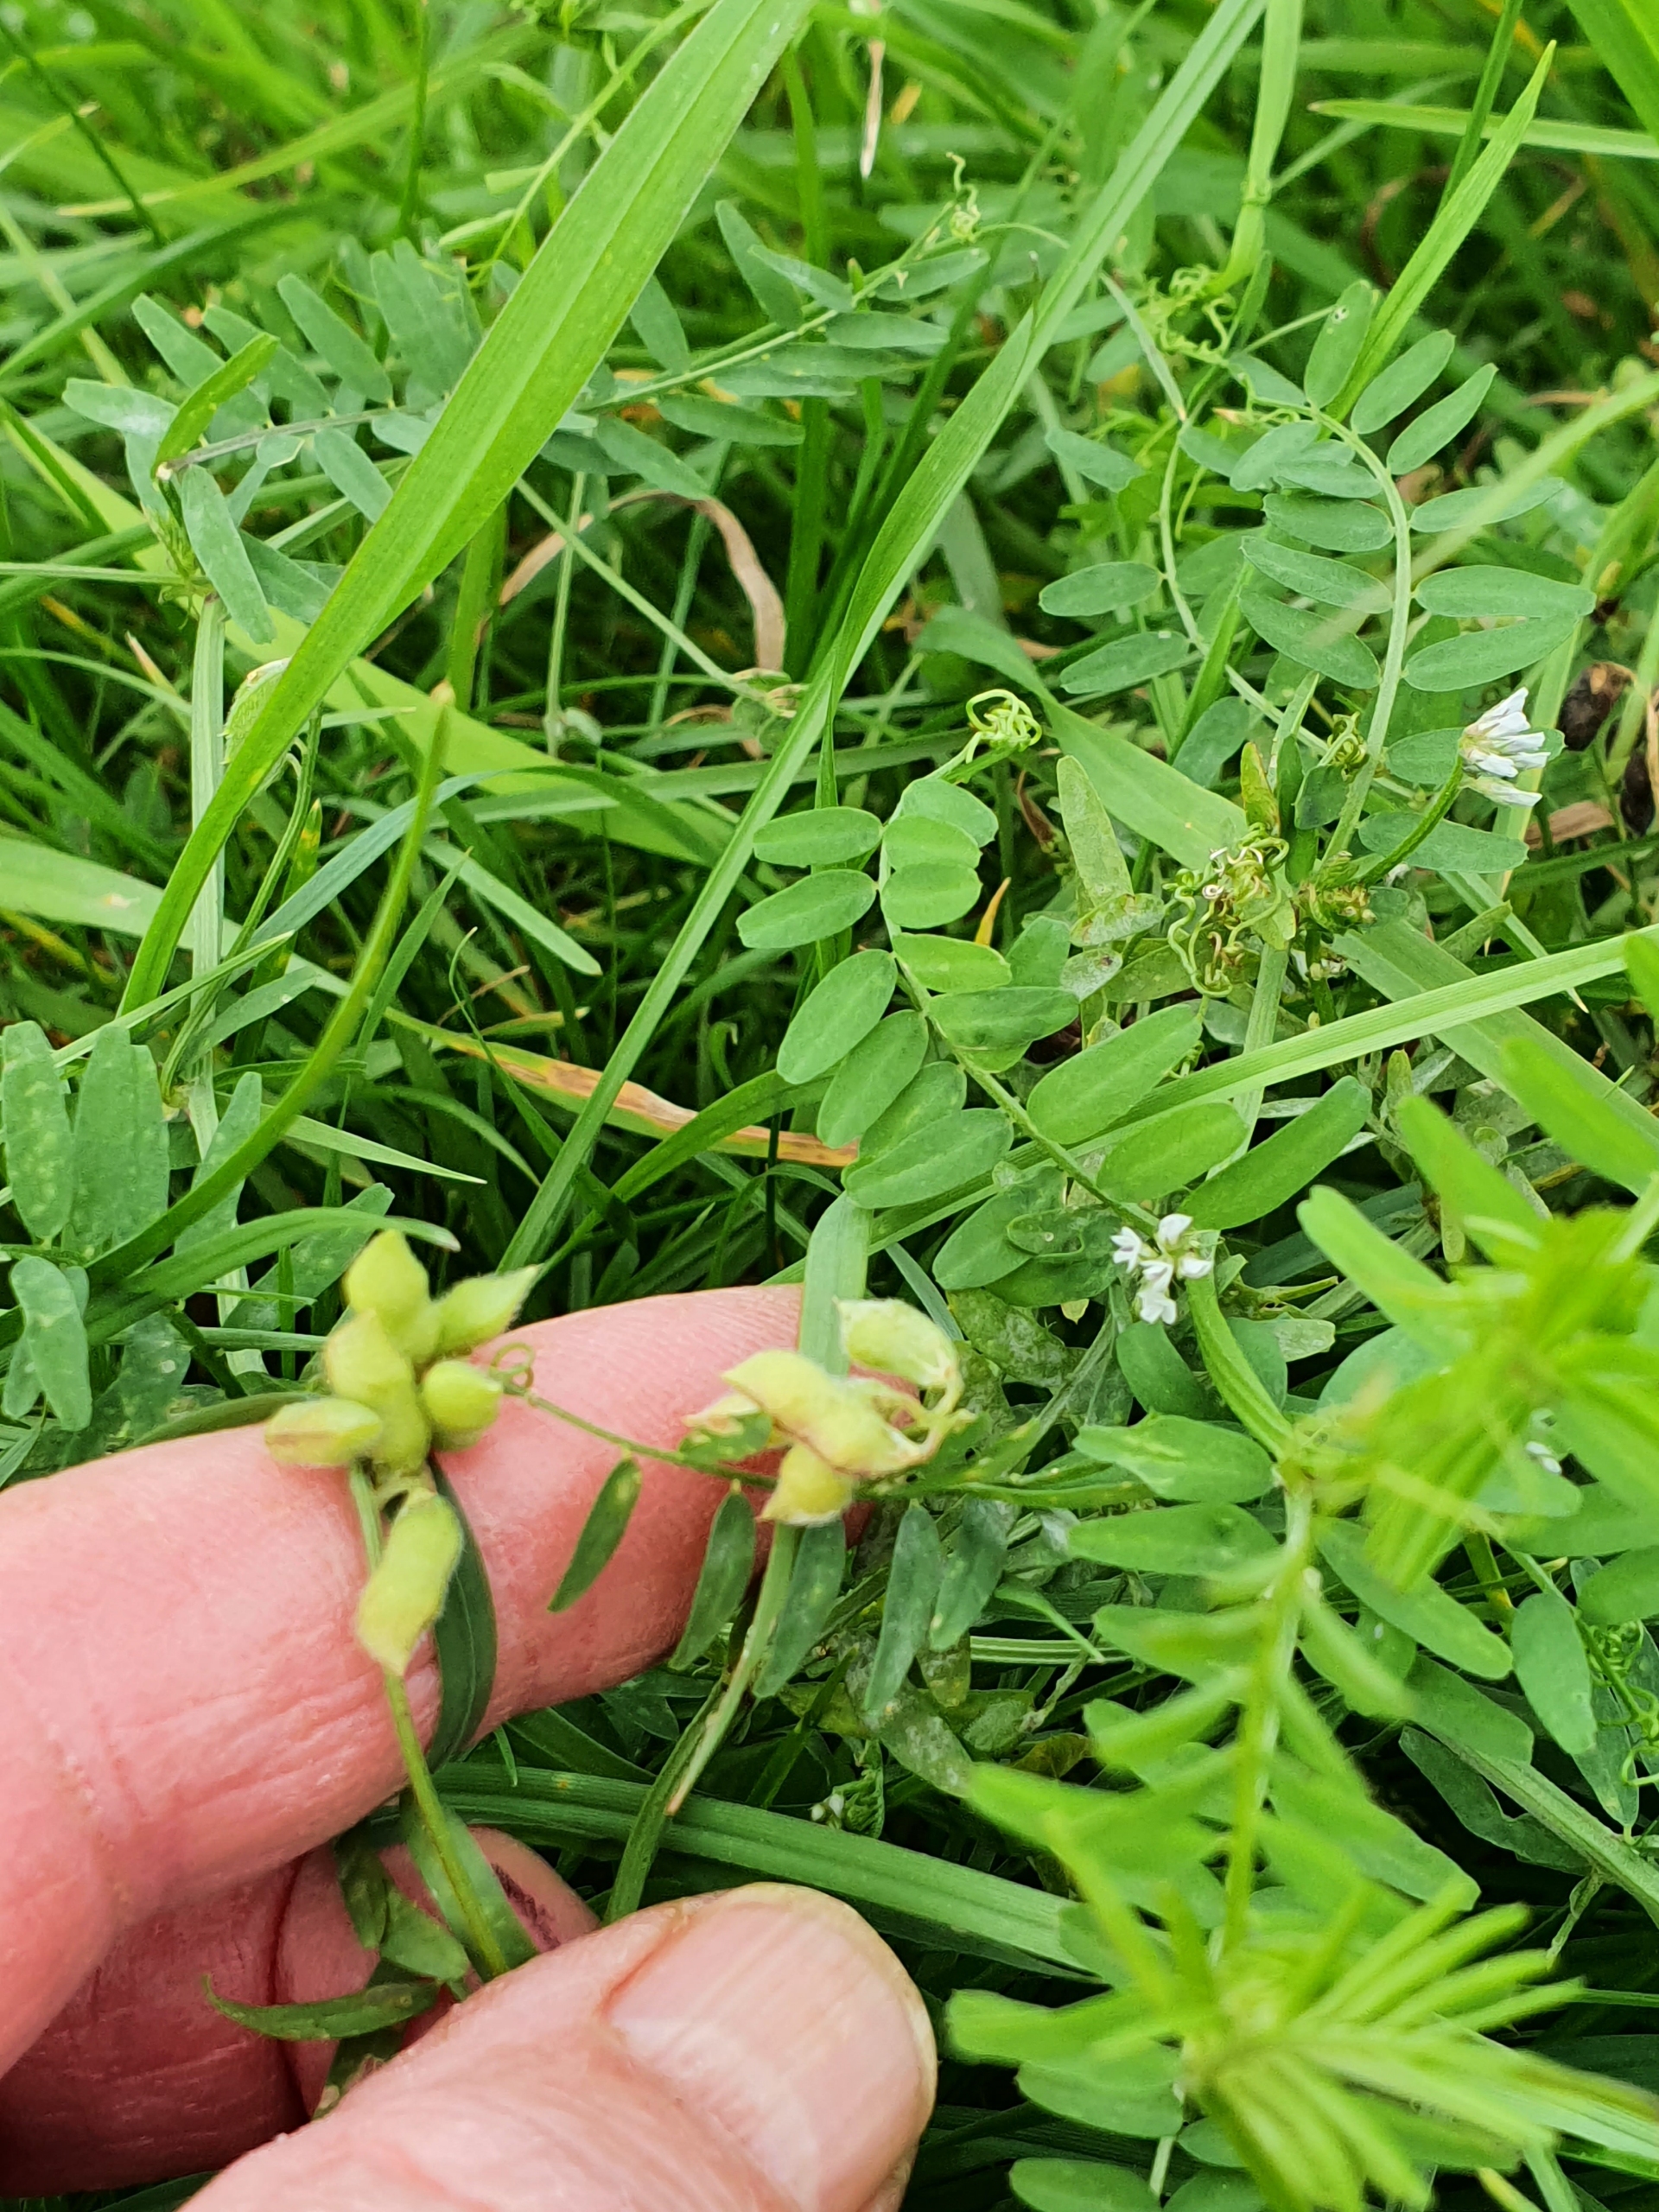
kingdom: Plantae
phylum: Tracheophyta
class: Magnoliopsida
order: Fabales
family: Fabaceae
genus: Vicia
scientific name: Vicia hirsuta
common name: Tofrøet vikke
